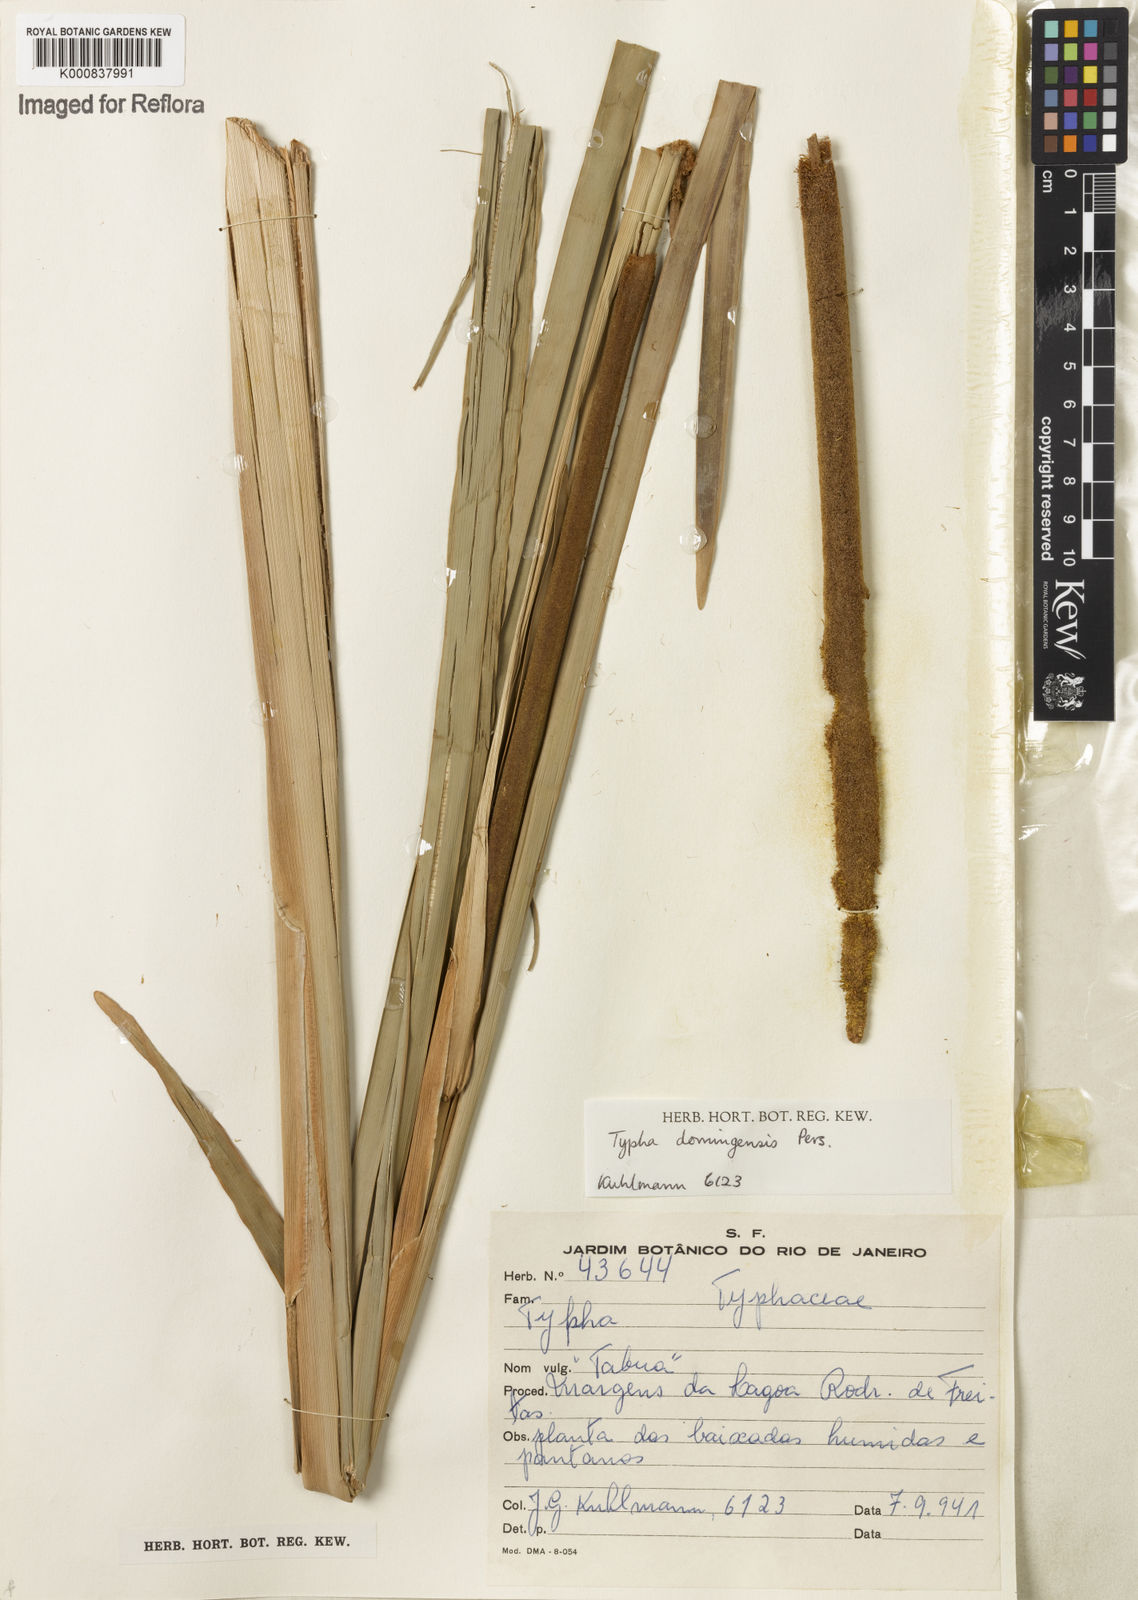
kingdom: Plantae
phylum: Tracheophyta
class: Liliopsida
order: Poales
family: Typhaceae
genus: Typha
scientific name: Typha
